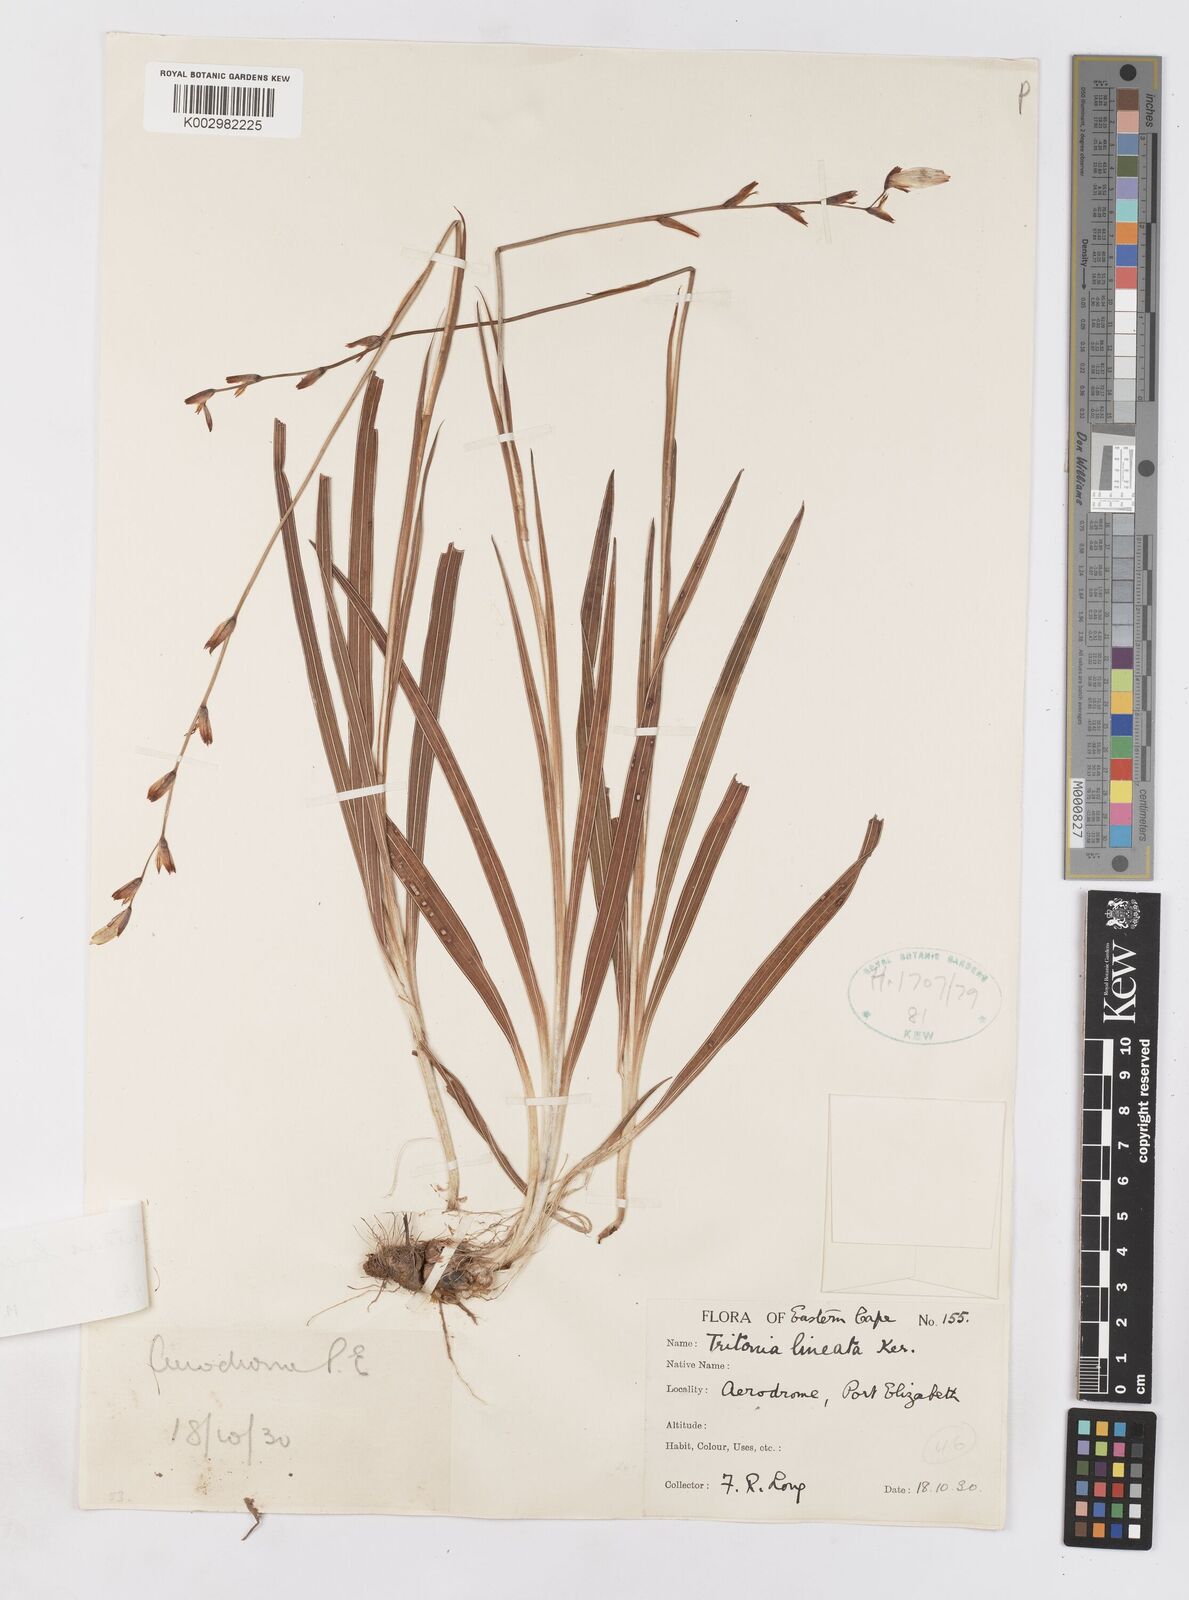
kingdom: Plantae
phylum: Tracheophyta
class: Liliopsida
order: Asparagales
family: Iridaceae
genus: Tritonia
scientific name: Tritonia gladiolaris
